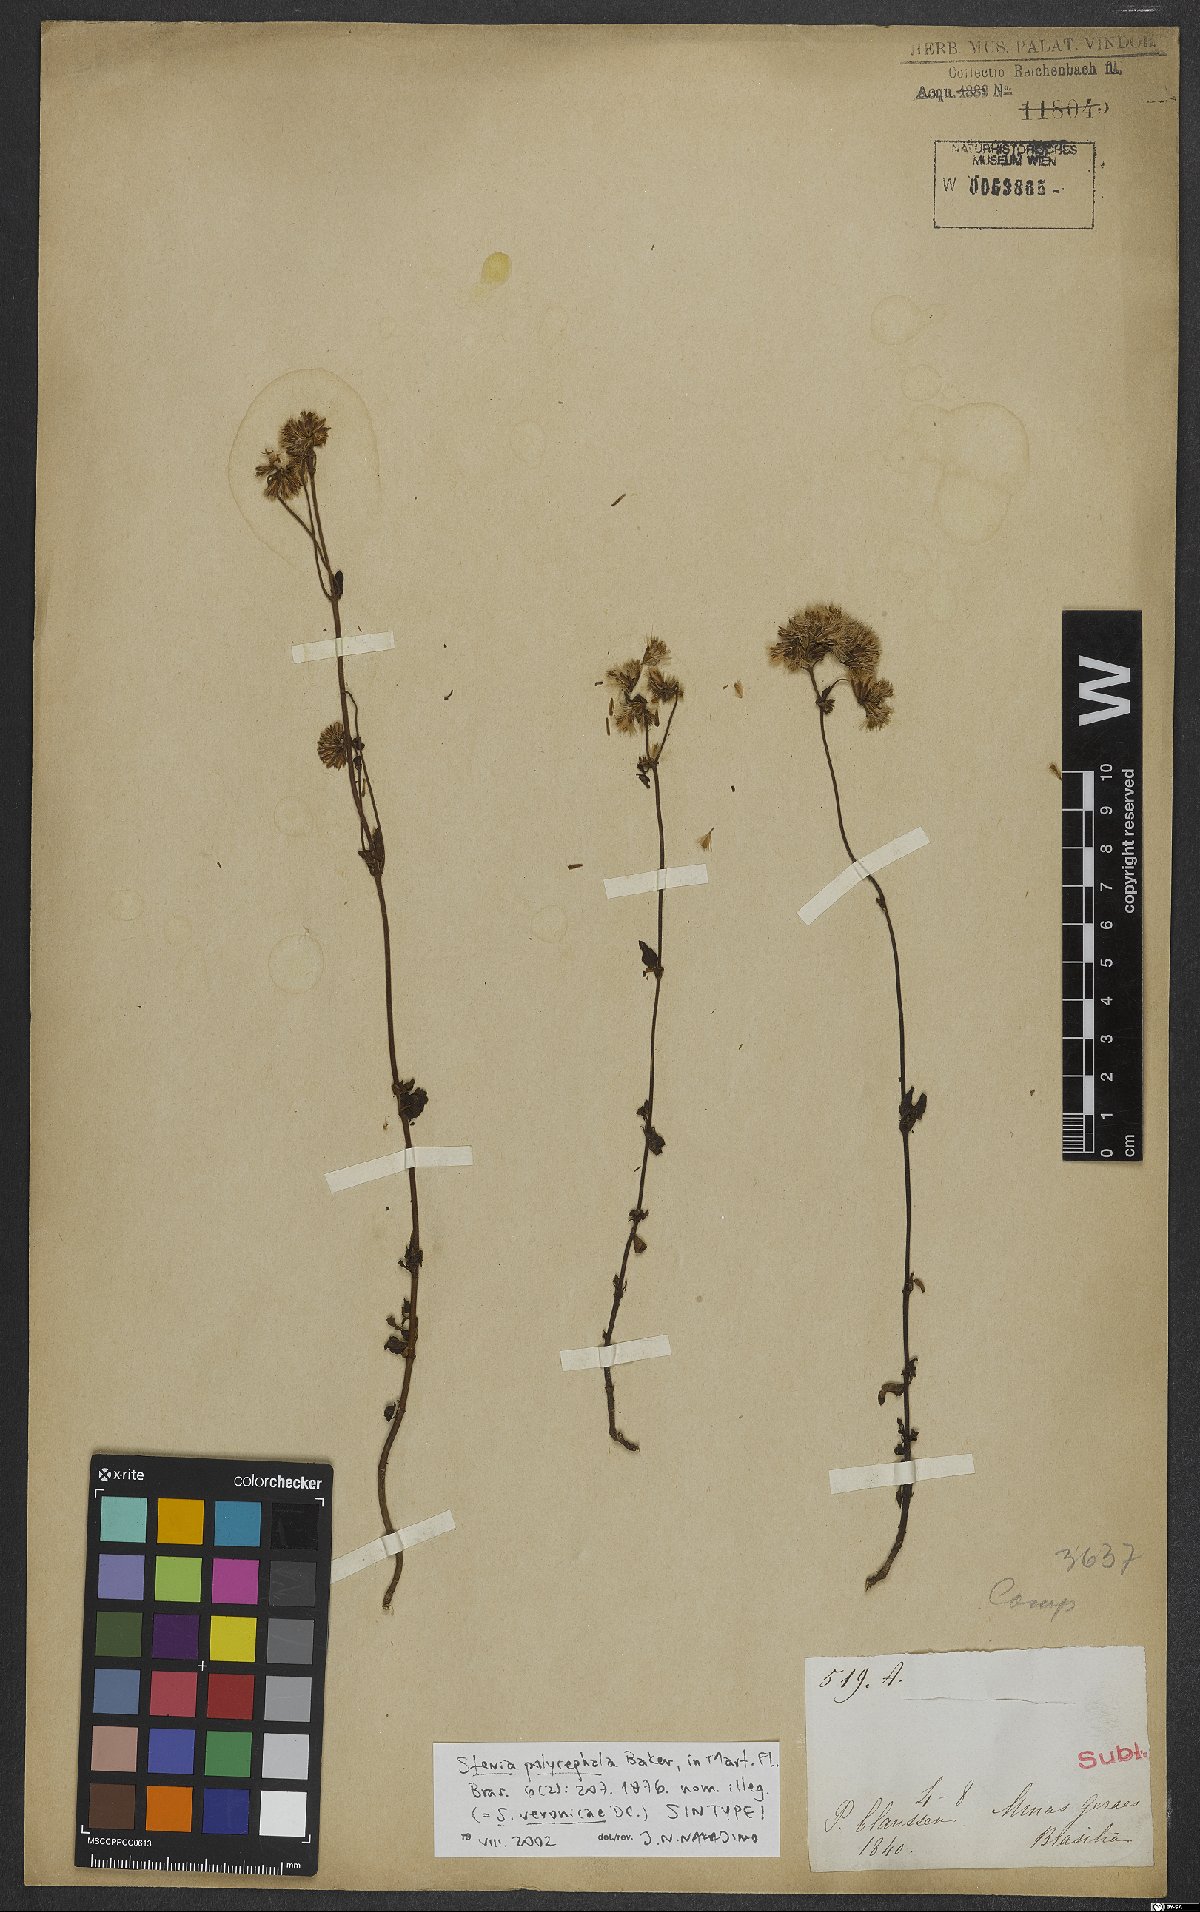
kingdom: Plantae
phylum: Tracheophyta
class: Magnoliopsida
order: Asterales
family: Asteraceae
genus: Stevia
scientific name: Stevia polycephala
